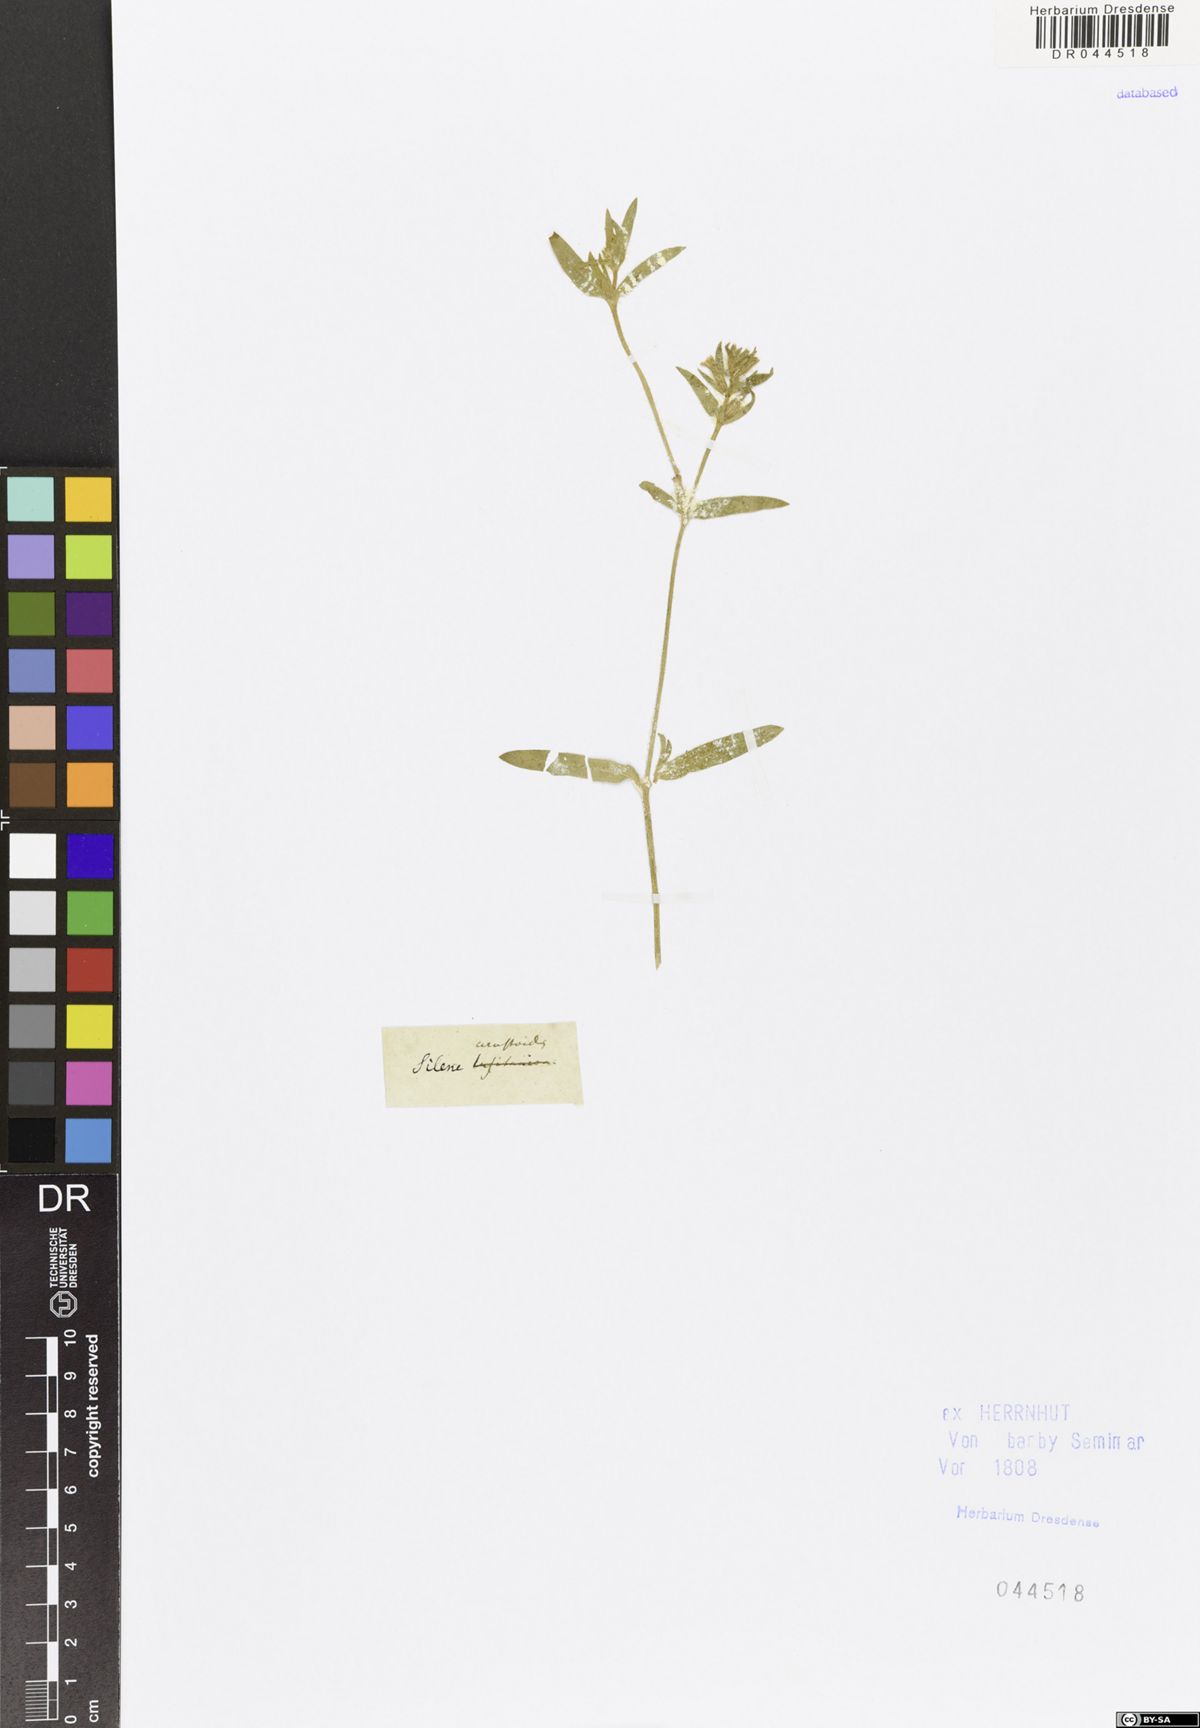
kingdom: Plantae
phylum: Tracheophyta
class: Magnoliopsida
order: Caryophyllales
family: Caryophyllaceae
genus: Silene
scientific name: Silene gallica
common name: Small-flowered catchfly
